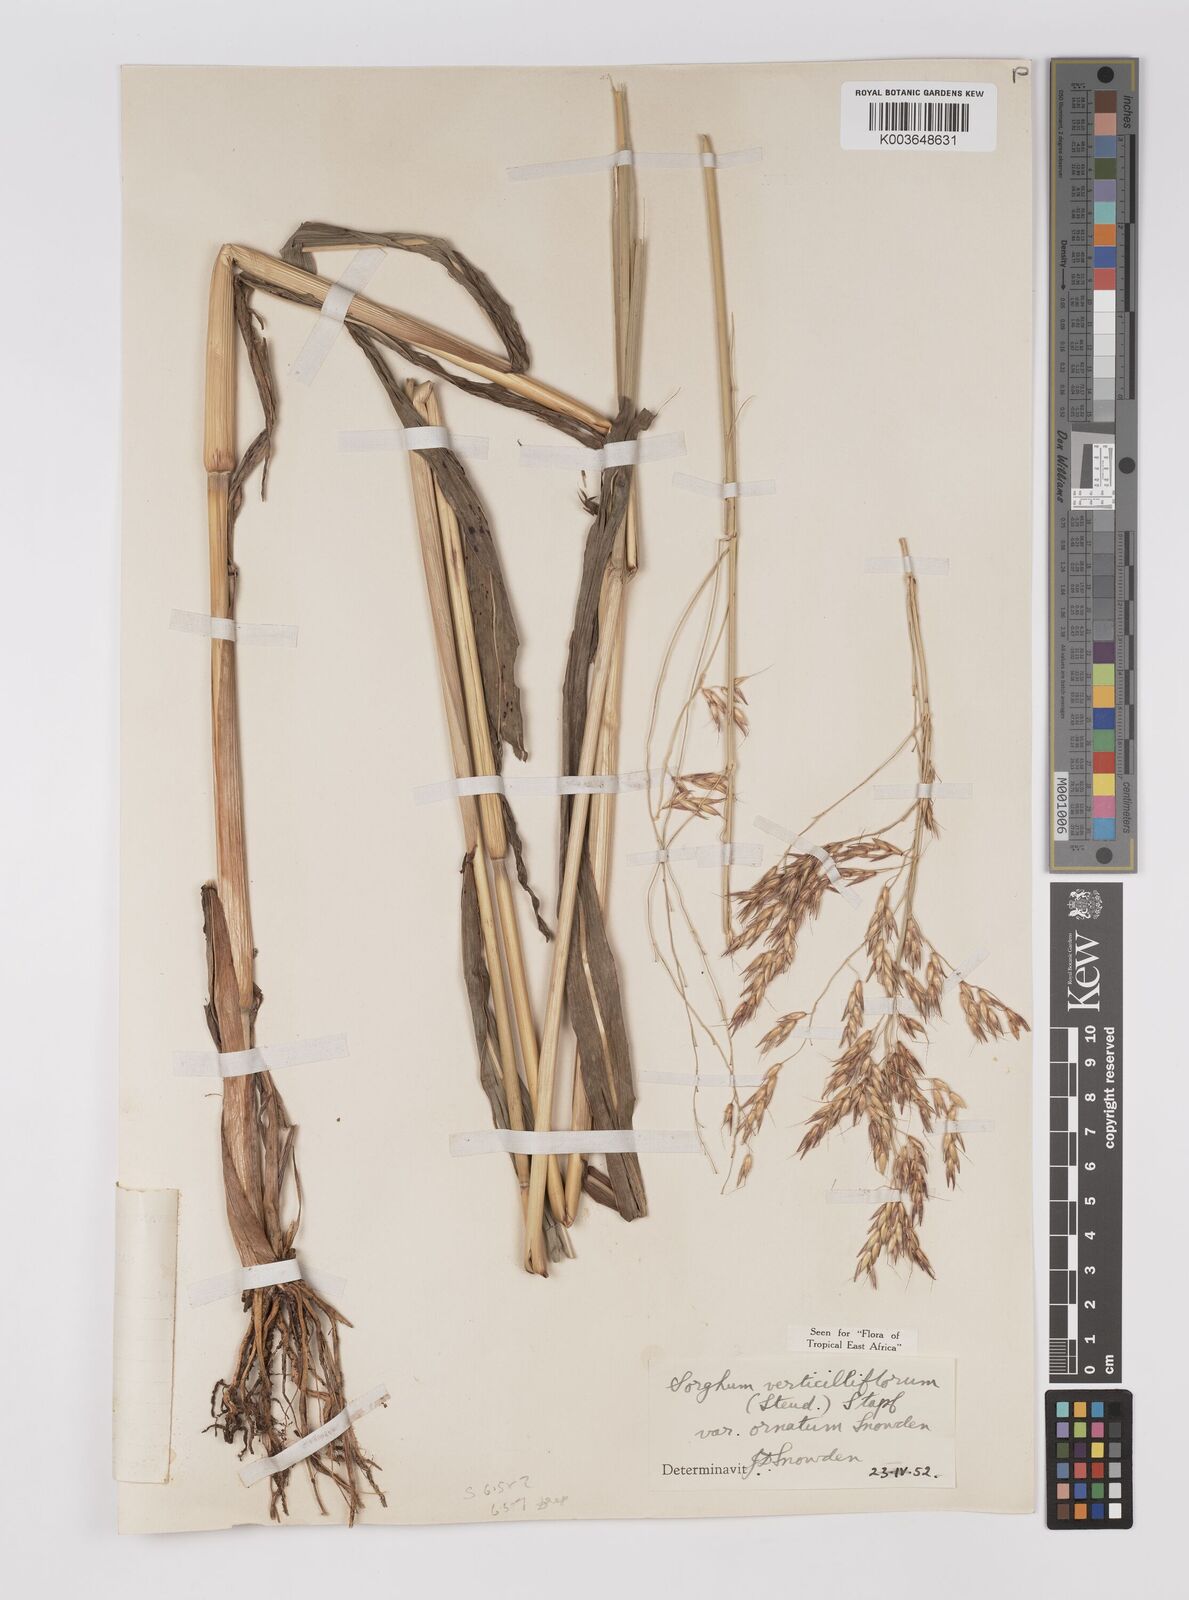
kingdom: Plantae
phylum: Tracheophyta
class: Liliopsida
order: Poales
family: Poaceae
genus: Sorghum
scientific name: Sorghum arundinaceum
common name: Sorghum
